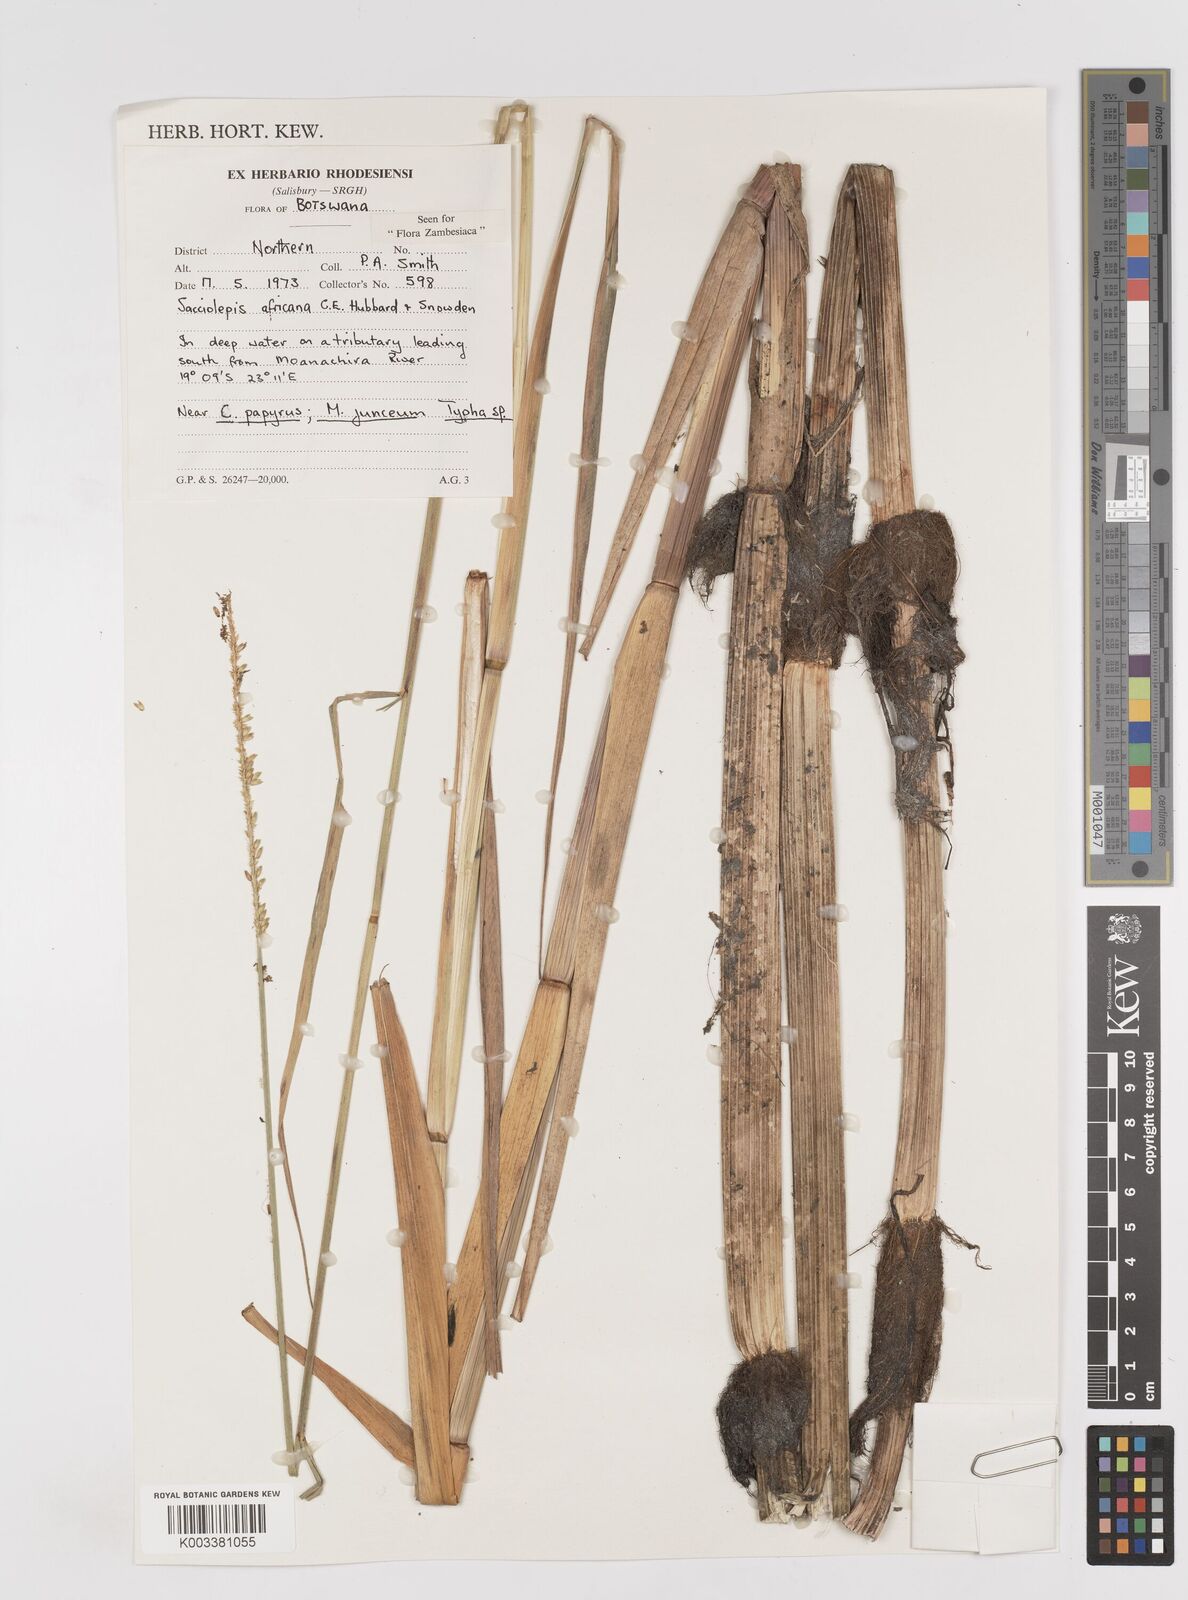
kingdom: Plantae
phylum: Tracheophyta
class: Liliopsida
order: Poales
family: Poaceae
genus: Sacciolepis
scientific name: Sacciolepis africana
